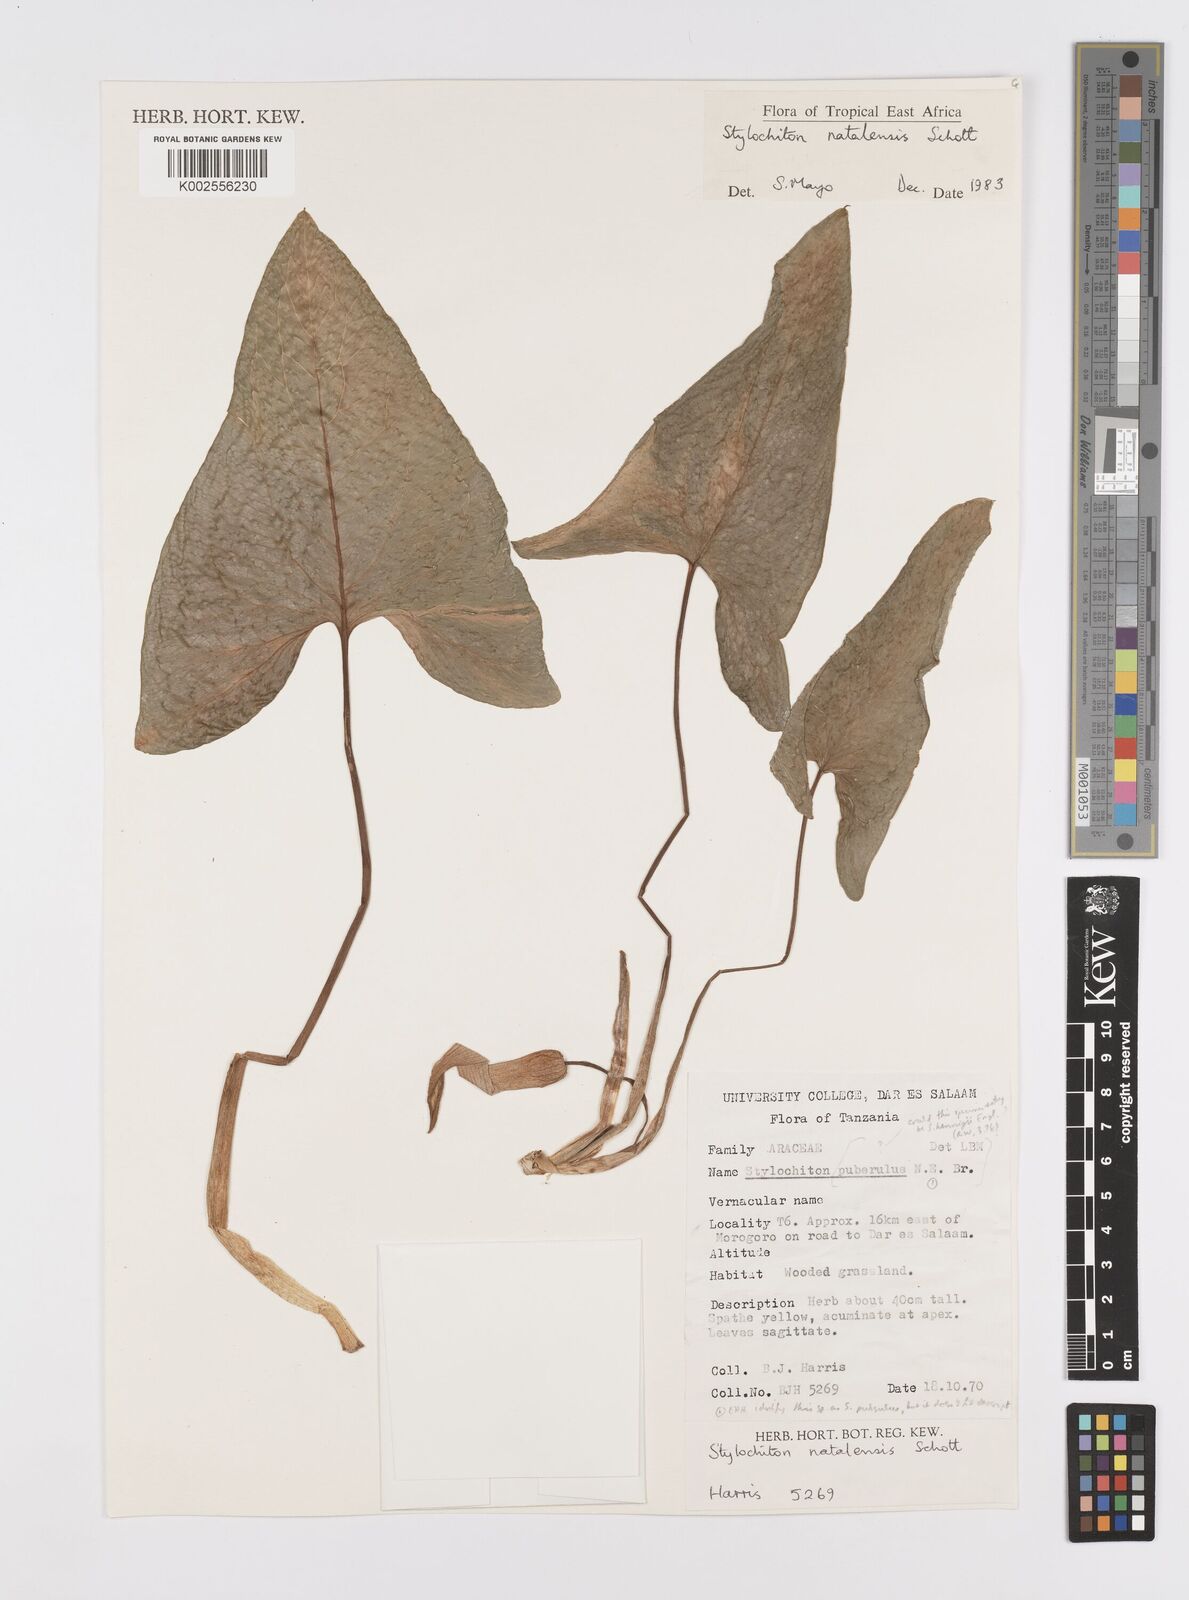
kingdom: Plantae
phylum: Tracheophyta
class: Liliopsida
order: Alismatales
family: Araceae
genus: Stylochaeton
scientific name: Stylochaeton natalense
